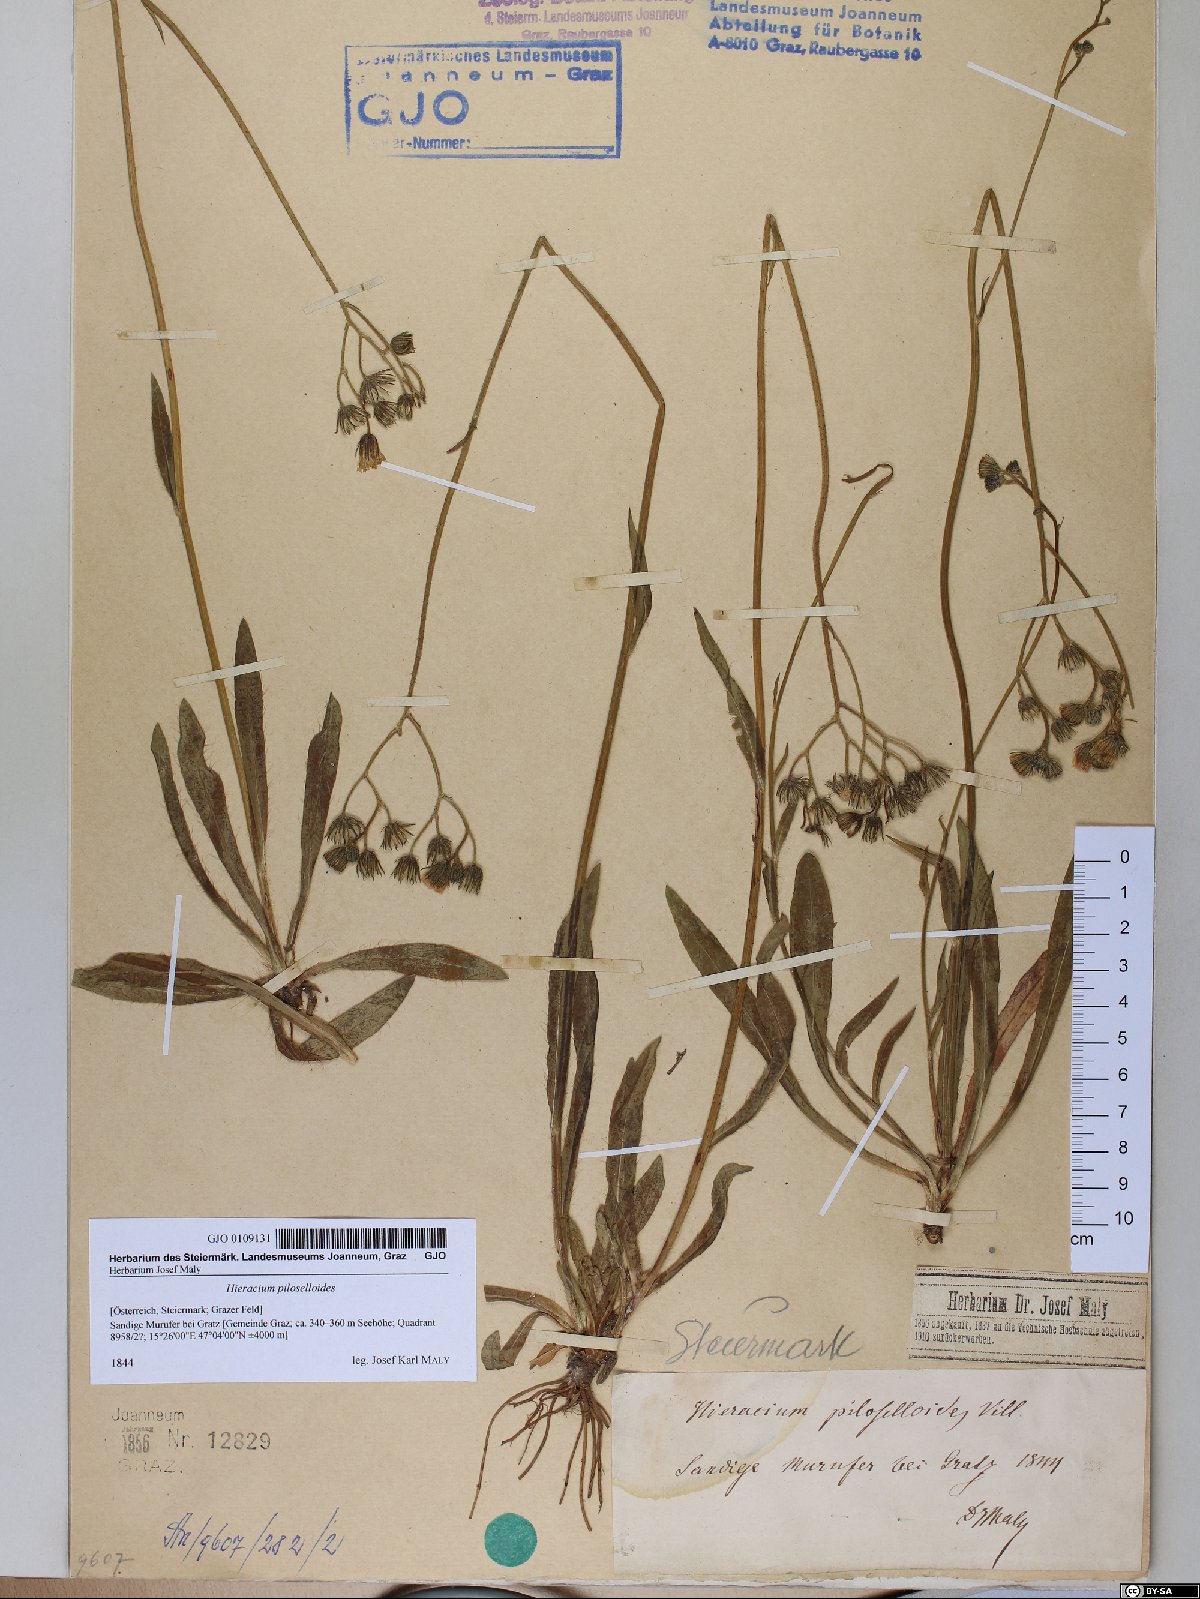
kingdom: Plantae
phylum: Tracheophyta
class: Magnoliopsida
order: Asterales
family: Asteraceae
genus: Pilosella
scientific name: Pilosella piloselloides
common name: Glaucous king-devil
